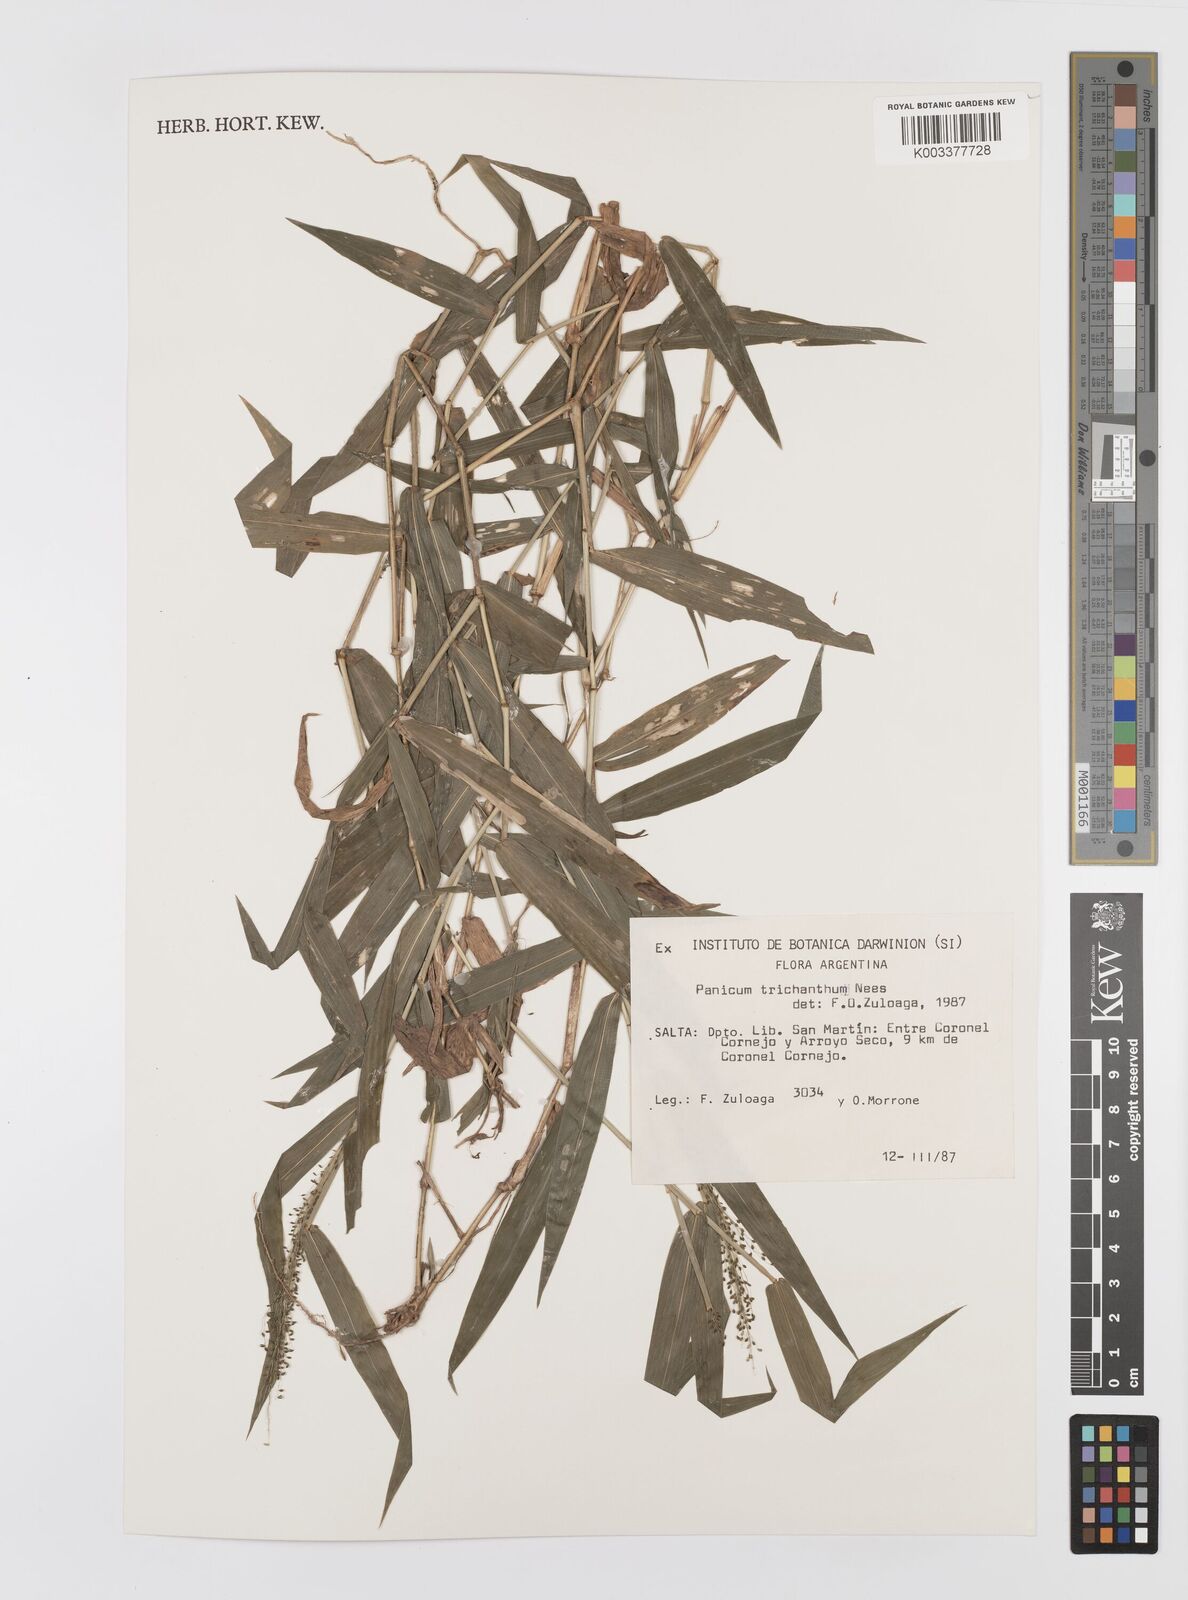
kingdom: Plantae
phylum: Tracheophyta
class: Liliopsida
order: Poales
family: Poaceae
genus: Panicum
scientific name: Panicum trichanthum
